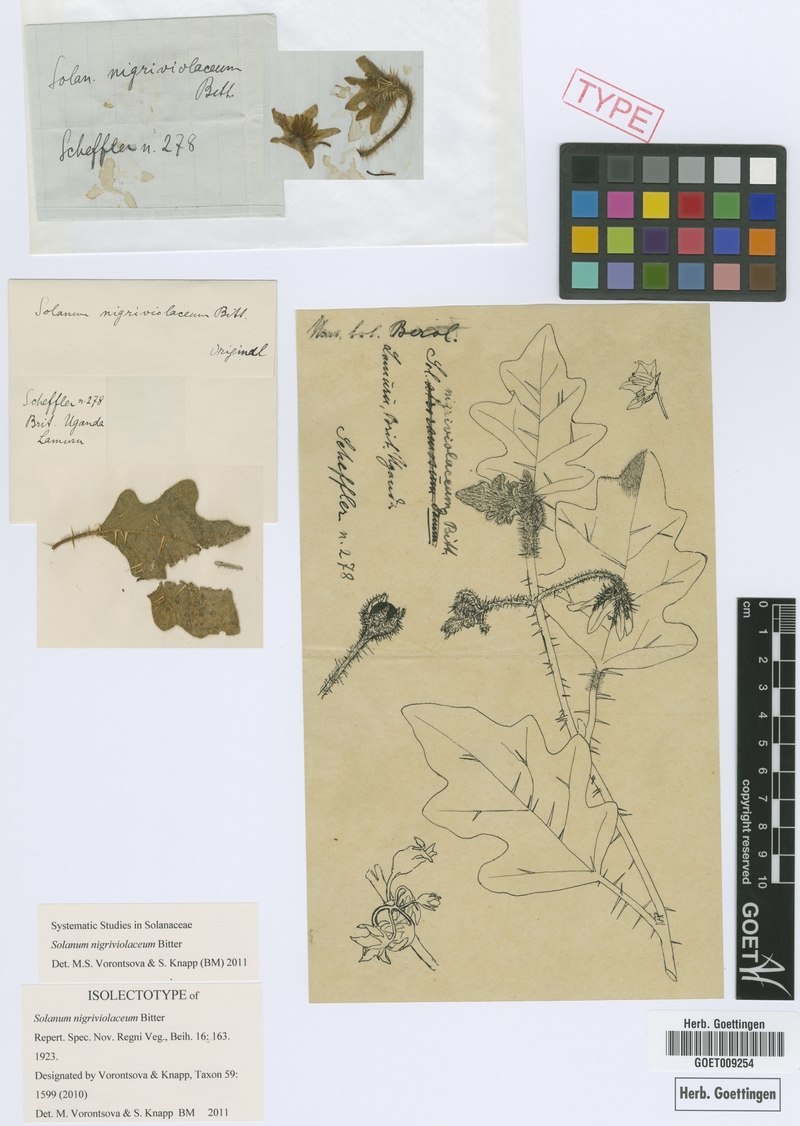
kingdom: Plantae
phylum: Tracheophyta
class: Magnoliopsida
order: Solanales
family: Solanaceae
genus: Solanum
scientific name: Solanum nigriviolaceum
